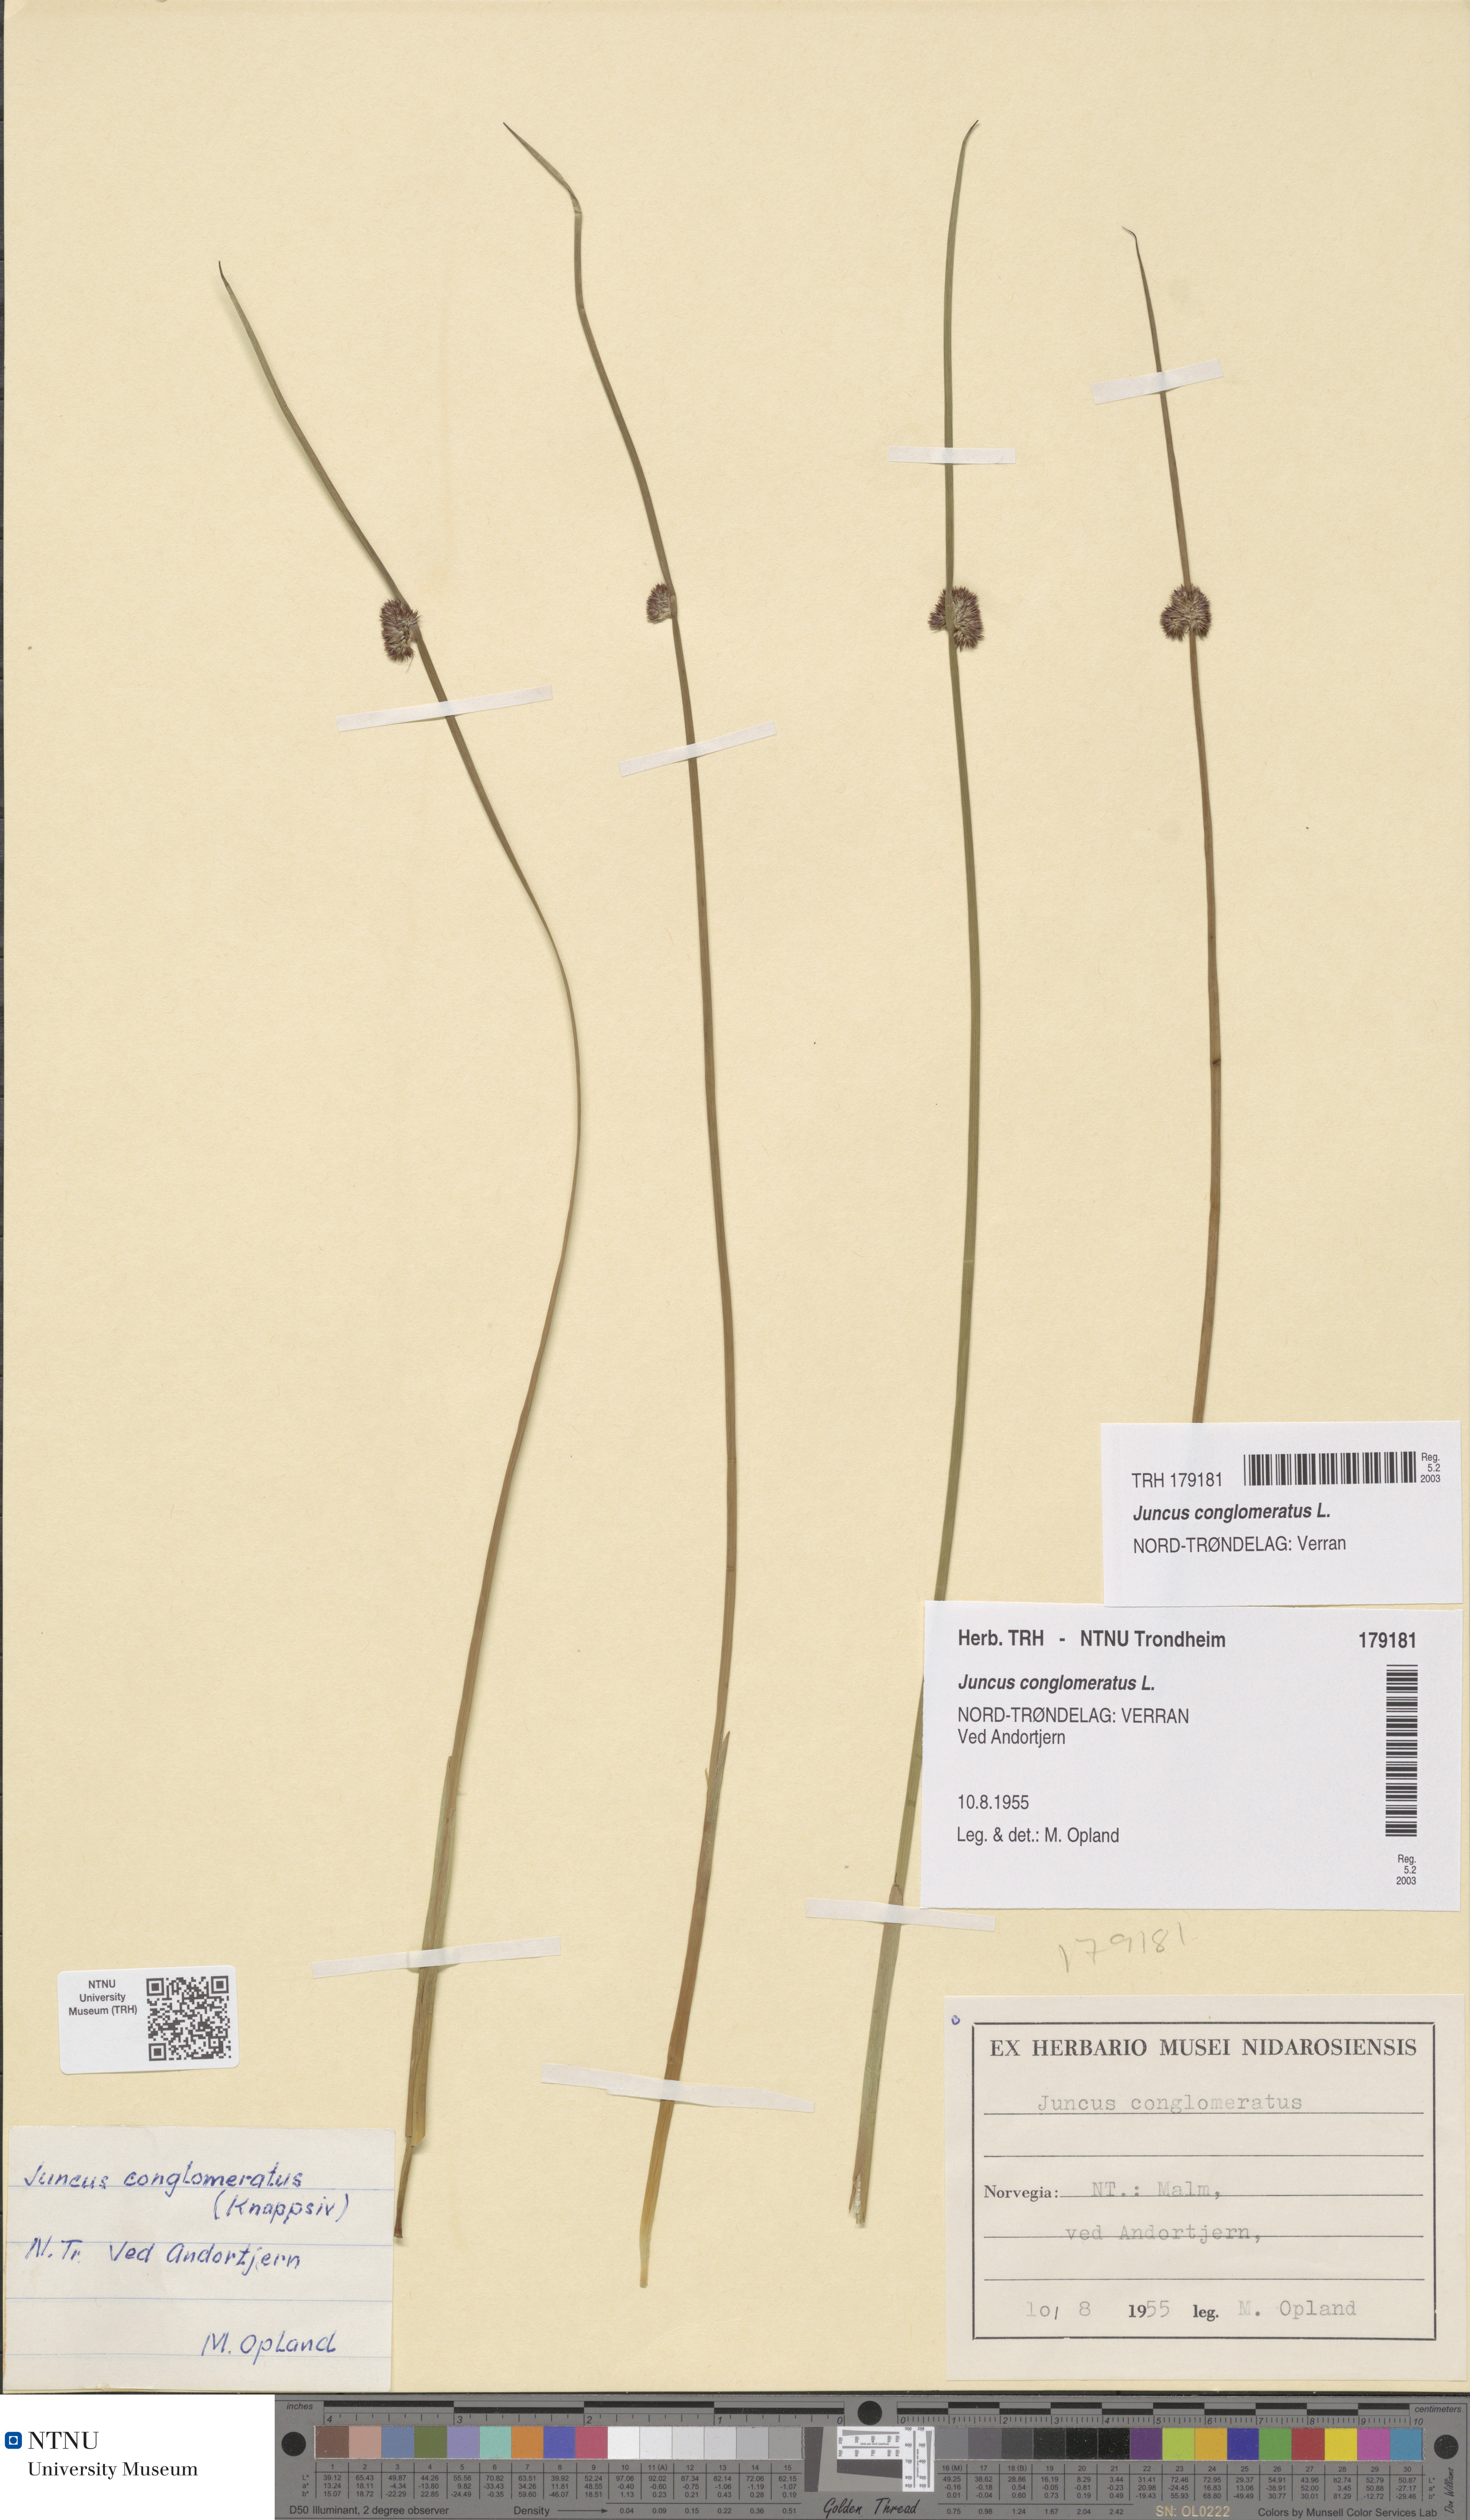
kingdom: Plantae
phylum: Tracheophyta
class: Liliopsida
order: Poales
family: Juncaceae
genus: Juncus
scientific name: Juncus conglomeratus
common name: Compact rush
